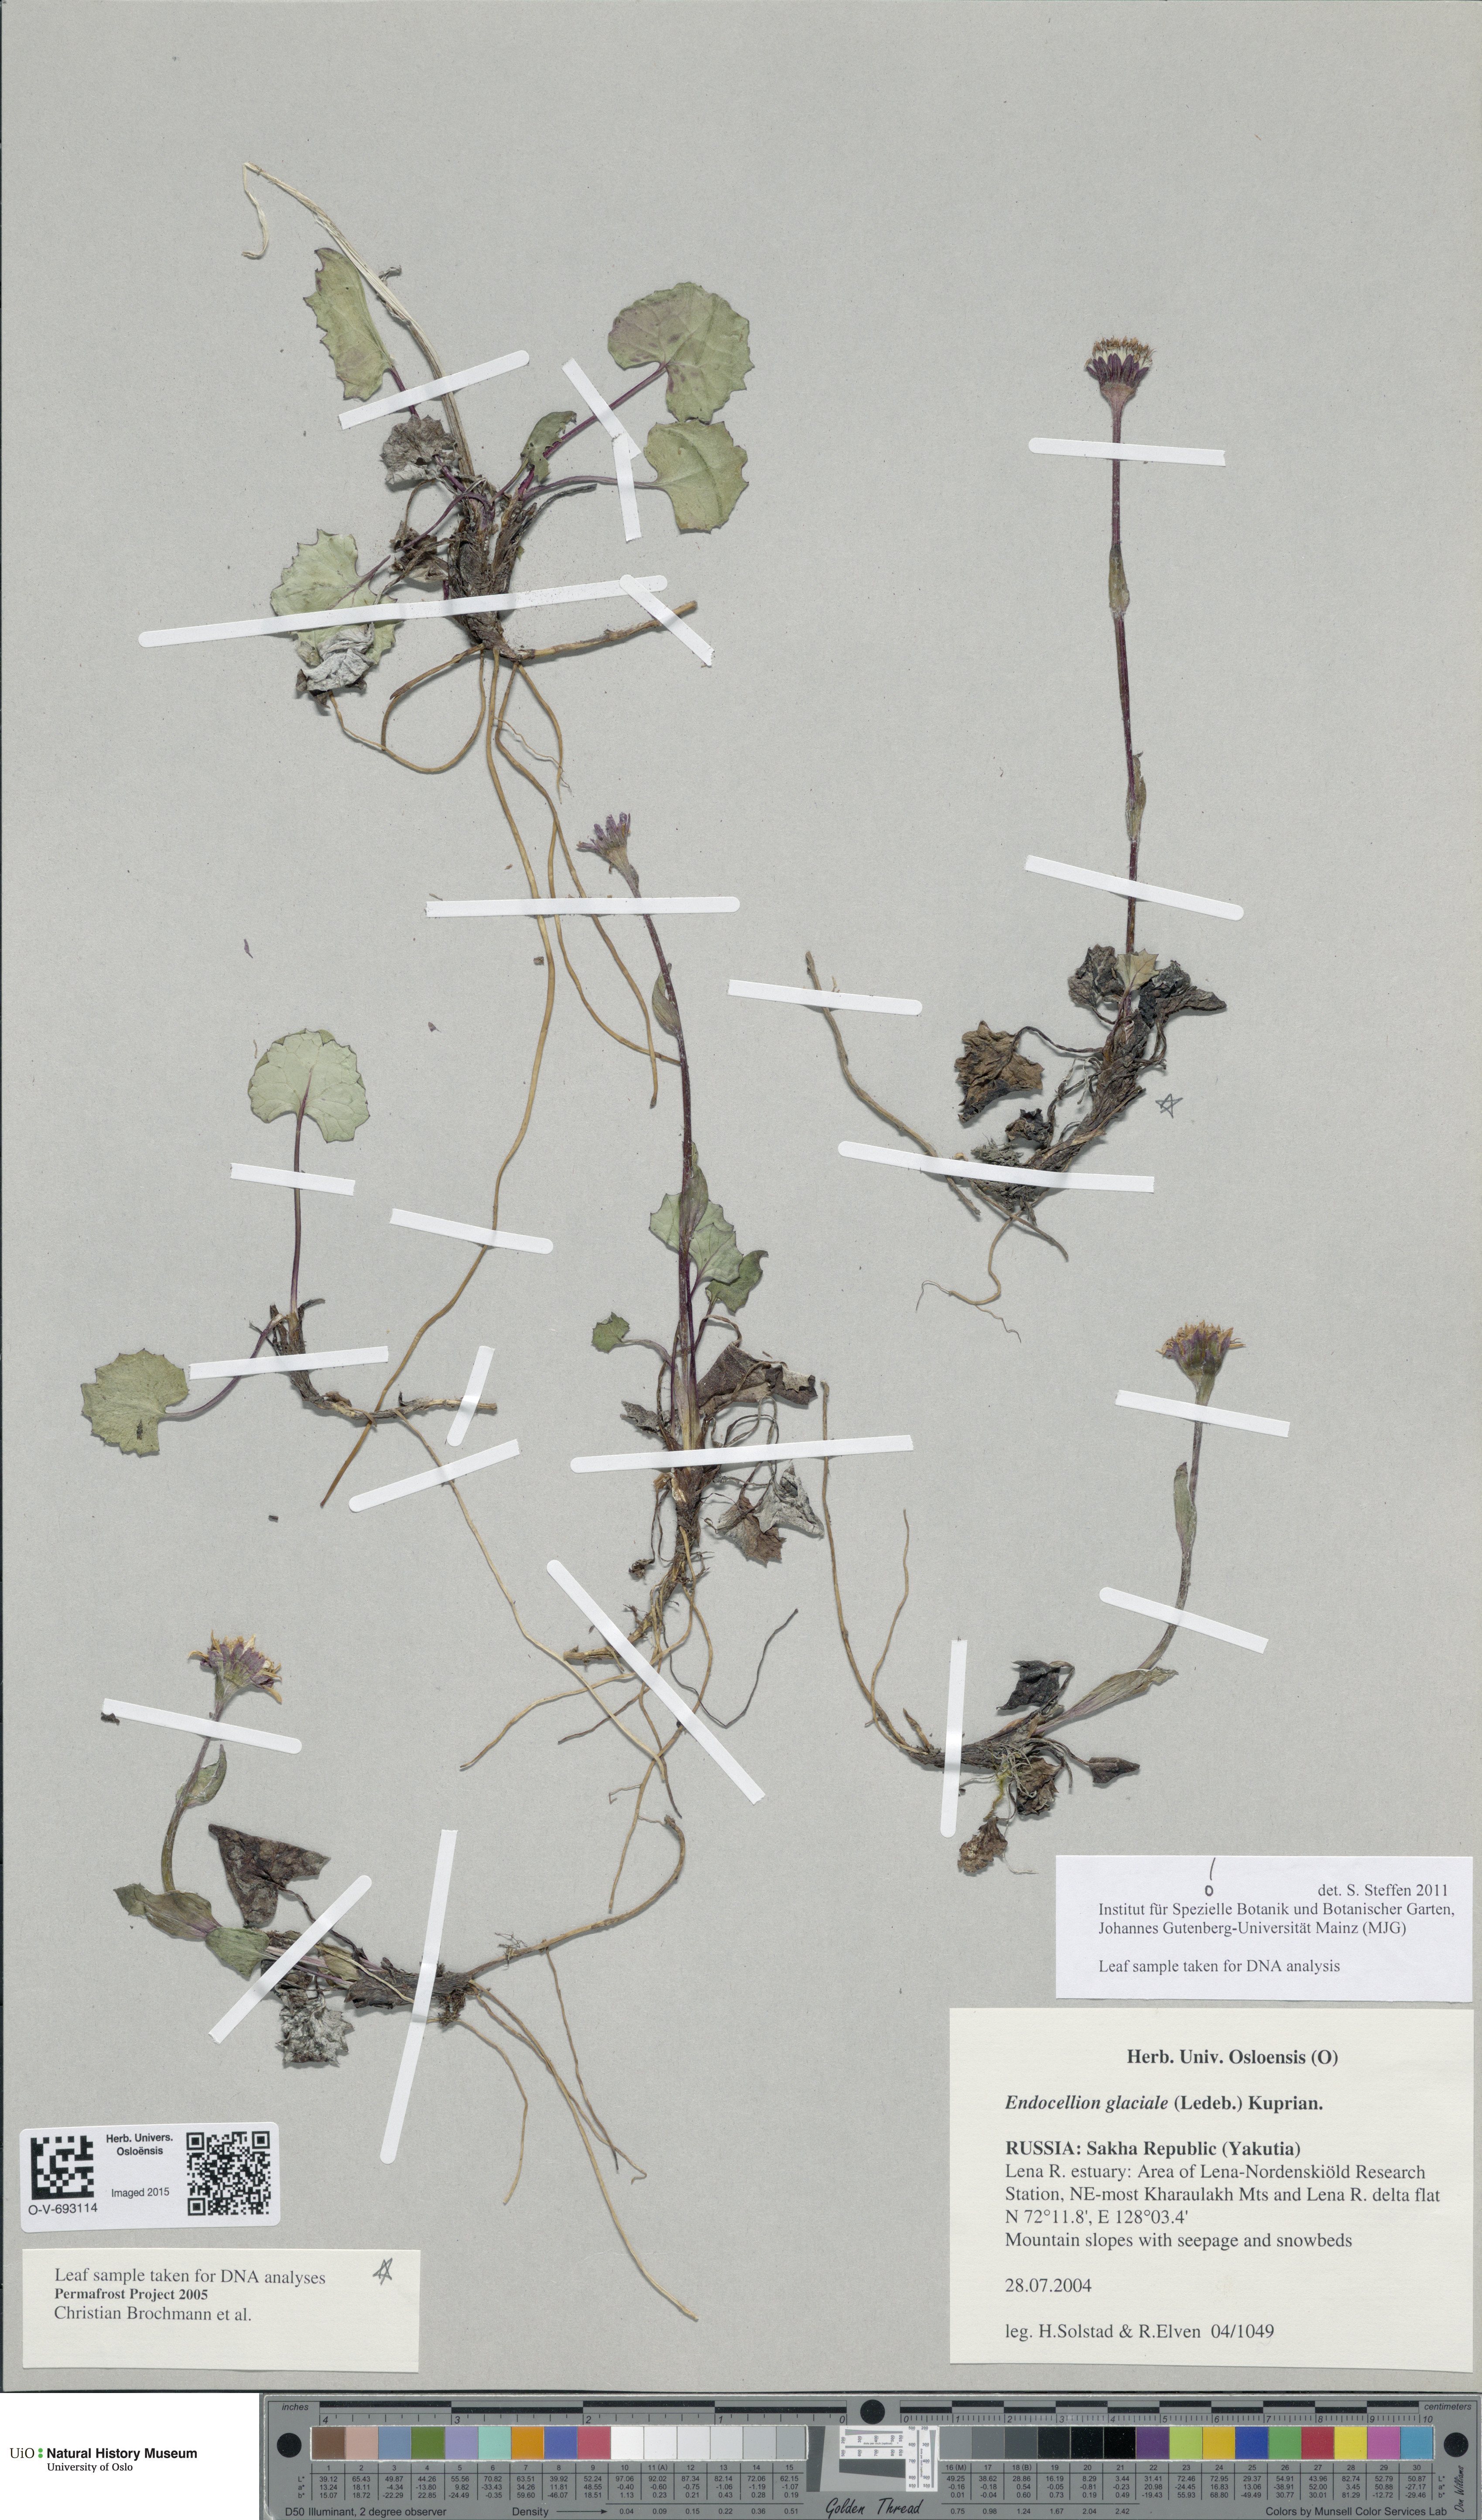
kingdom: Plantae
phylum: Tracheophyta
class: Magnoliopsida
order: Asterales
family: Asteraceae
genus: Endocellion
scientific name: Endocellion glaciale
